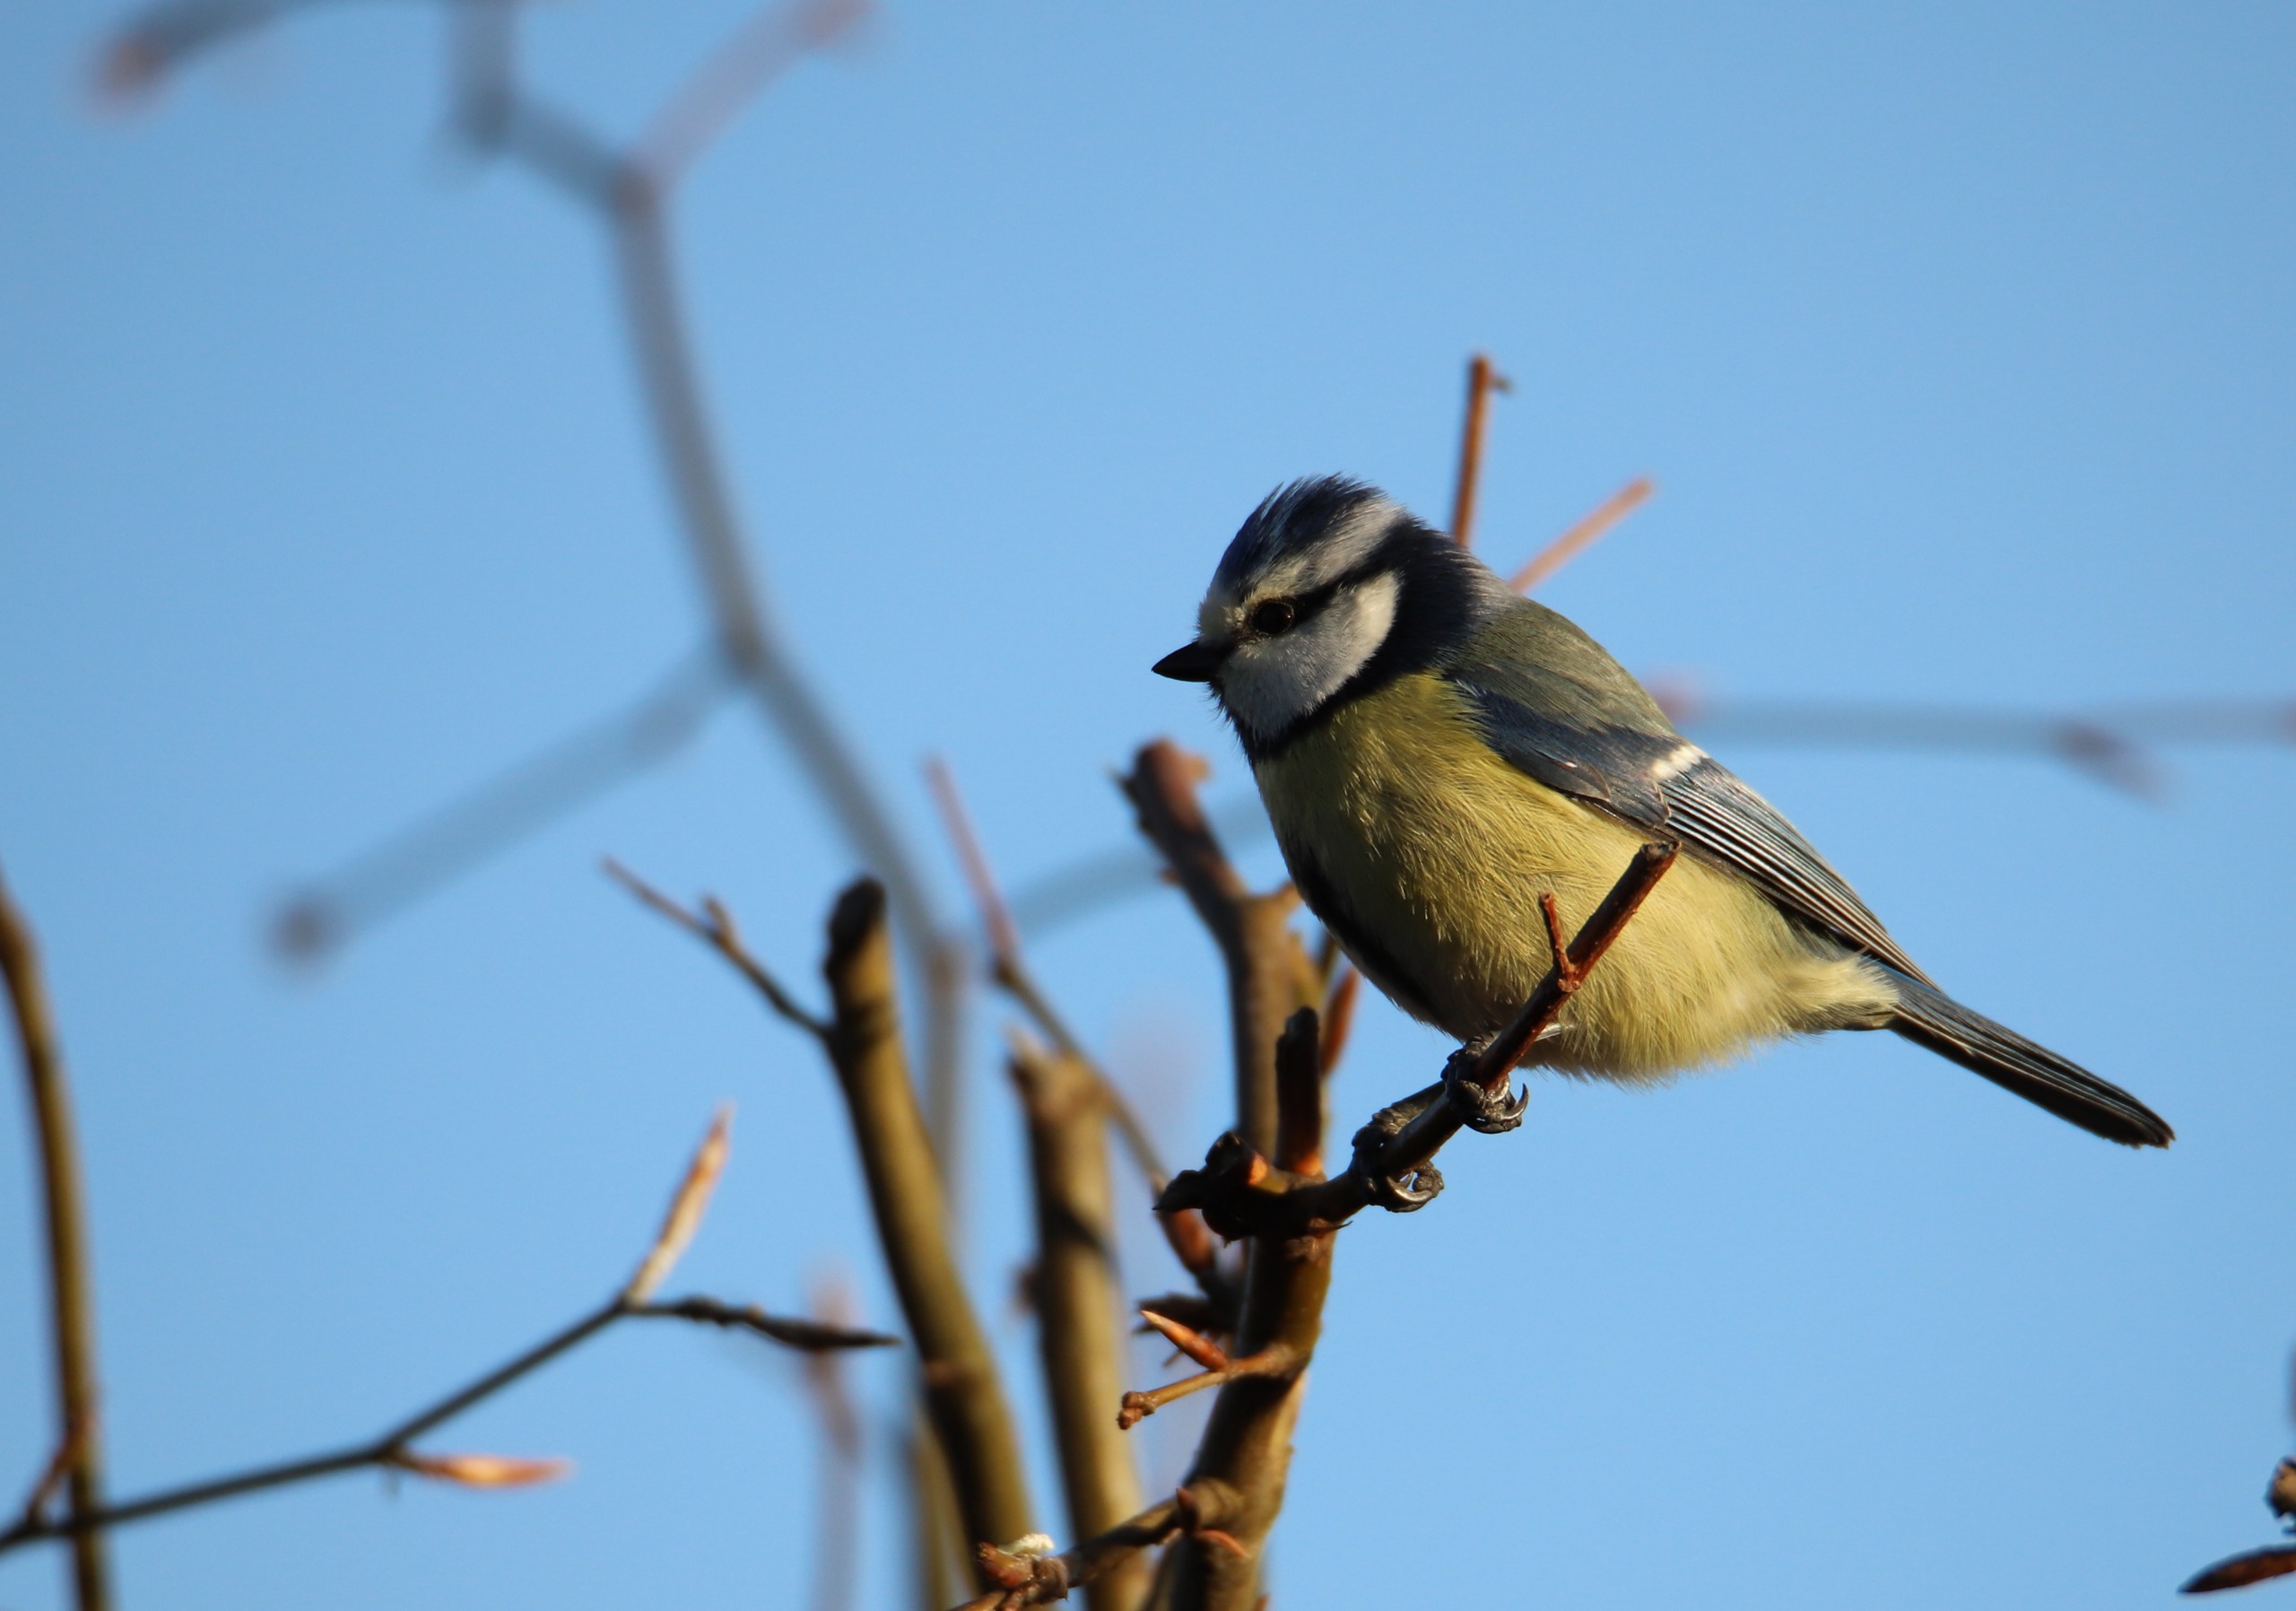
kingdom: Animalia
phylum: Chordata
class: Aves
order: Passeriformes
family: Paridae
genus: Cyanistes
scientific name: Cyanistes caeruleus
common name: Blåmejse
